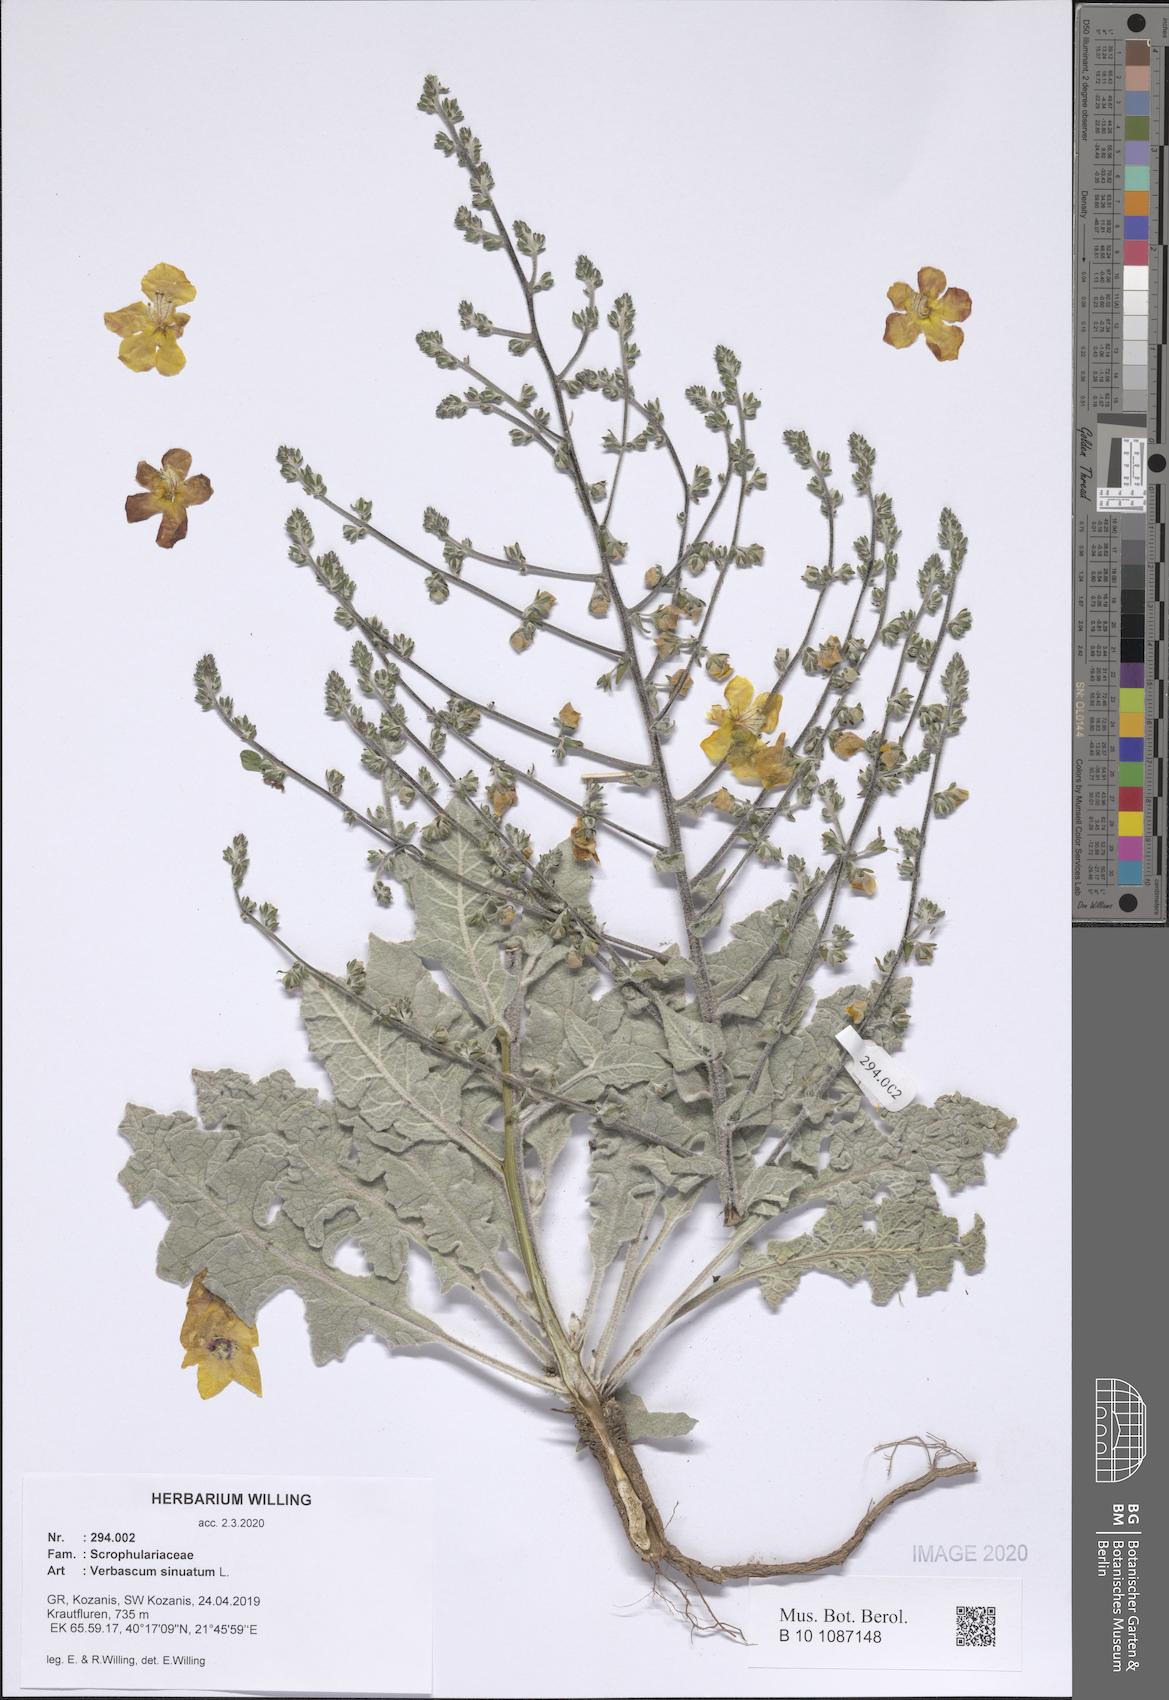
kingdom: Plantae
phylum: Tracheophyta
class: Magnoliopsida
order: Lamiales
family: Scrophulariaceae
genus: Verbascum
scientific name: Verbascum sinuatum
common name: Wavyleaf mullein
